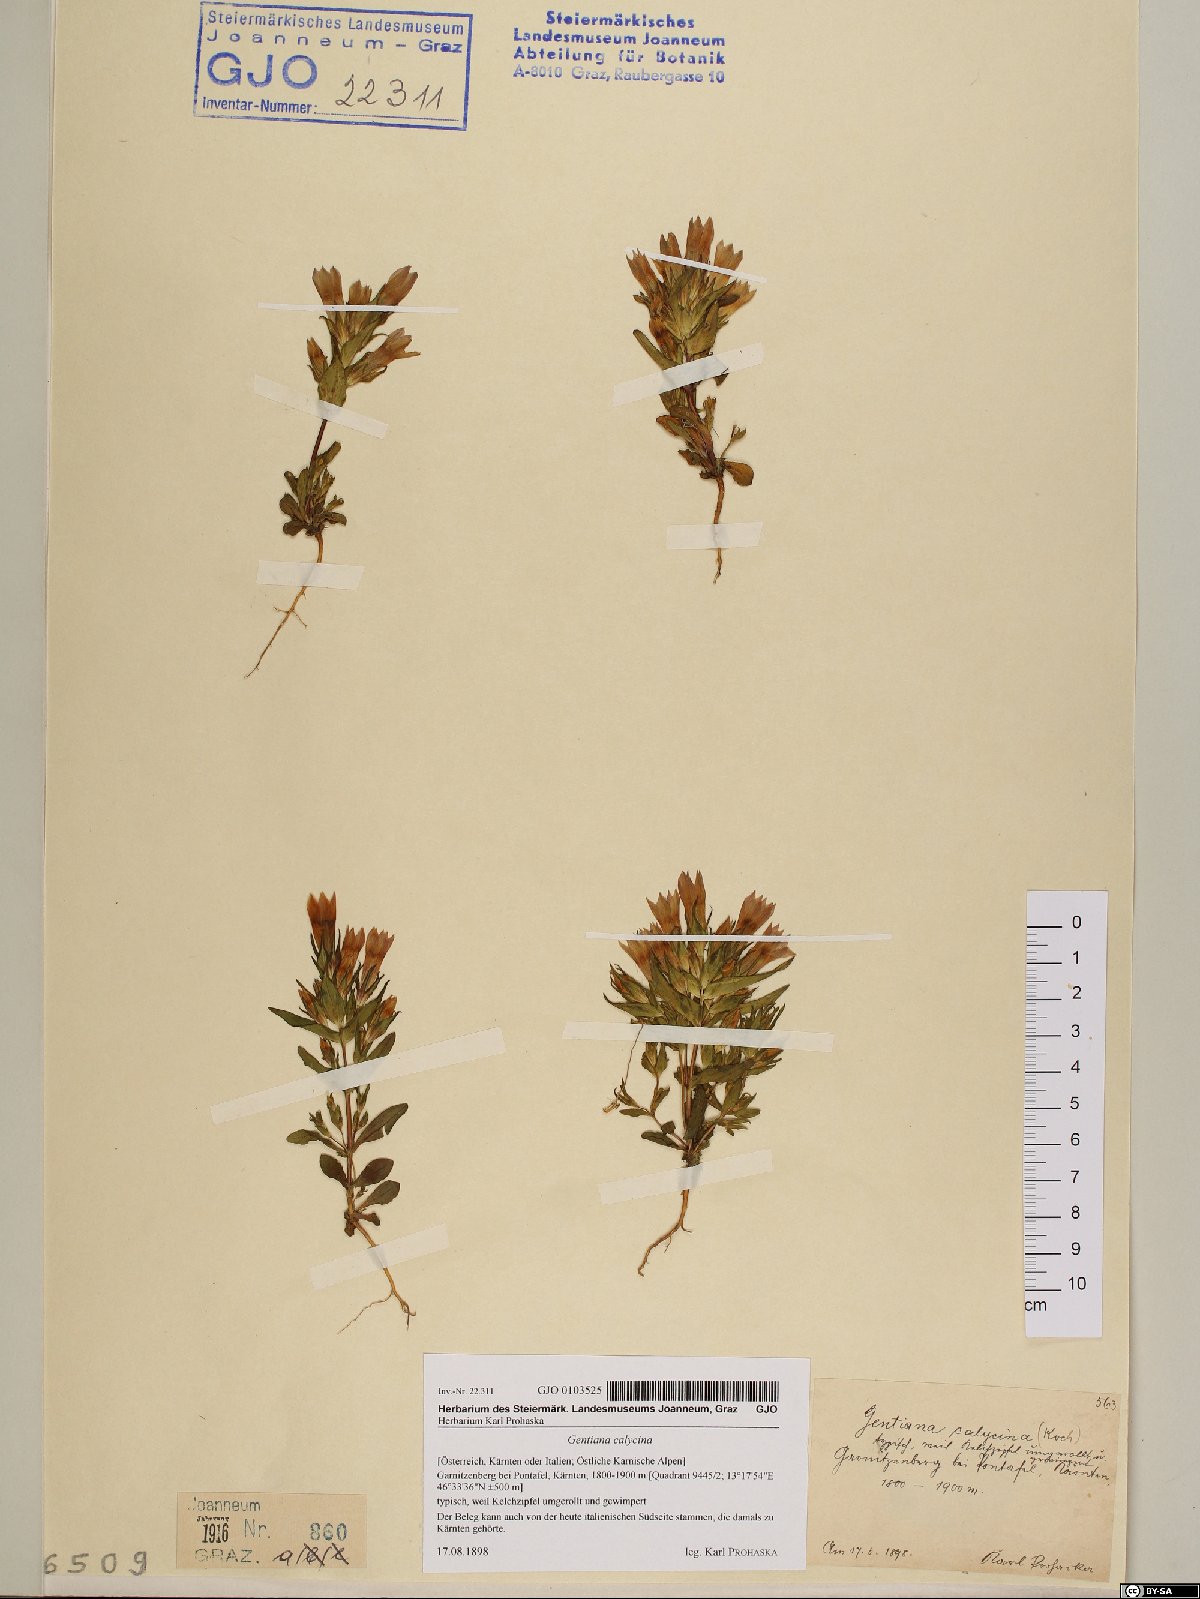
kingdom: Plantae
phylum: Tracheophyta
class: Magnoliopsida
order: Gentianales
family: Gentianaceae
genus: Gentianella
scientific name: Gentianella germanica
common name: Chiltern-gentian
